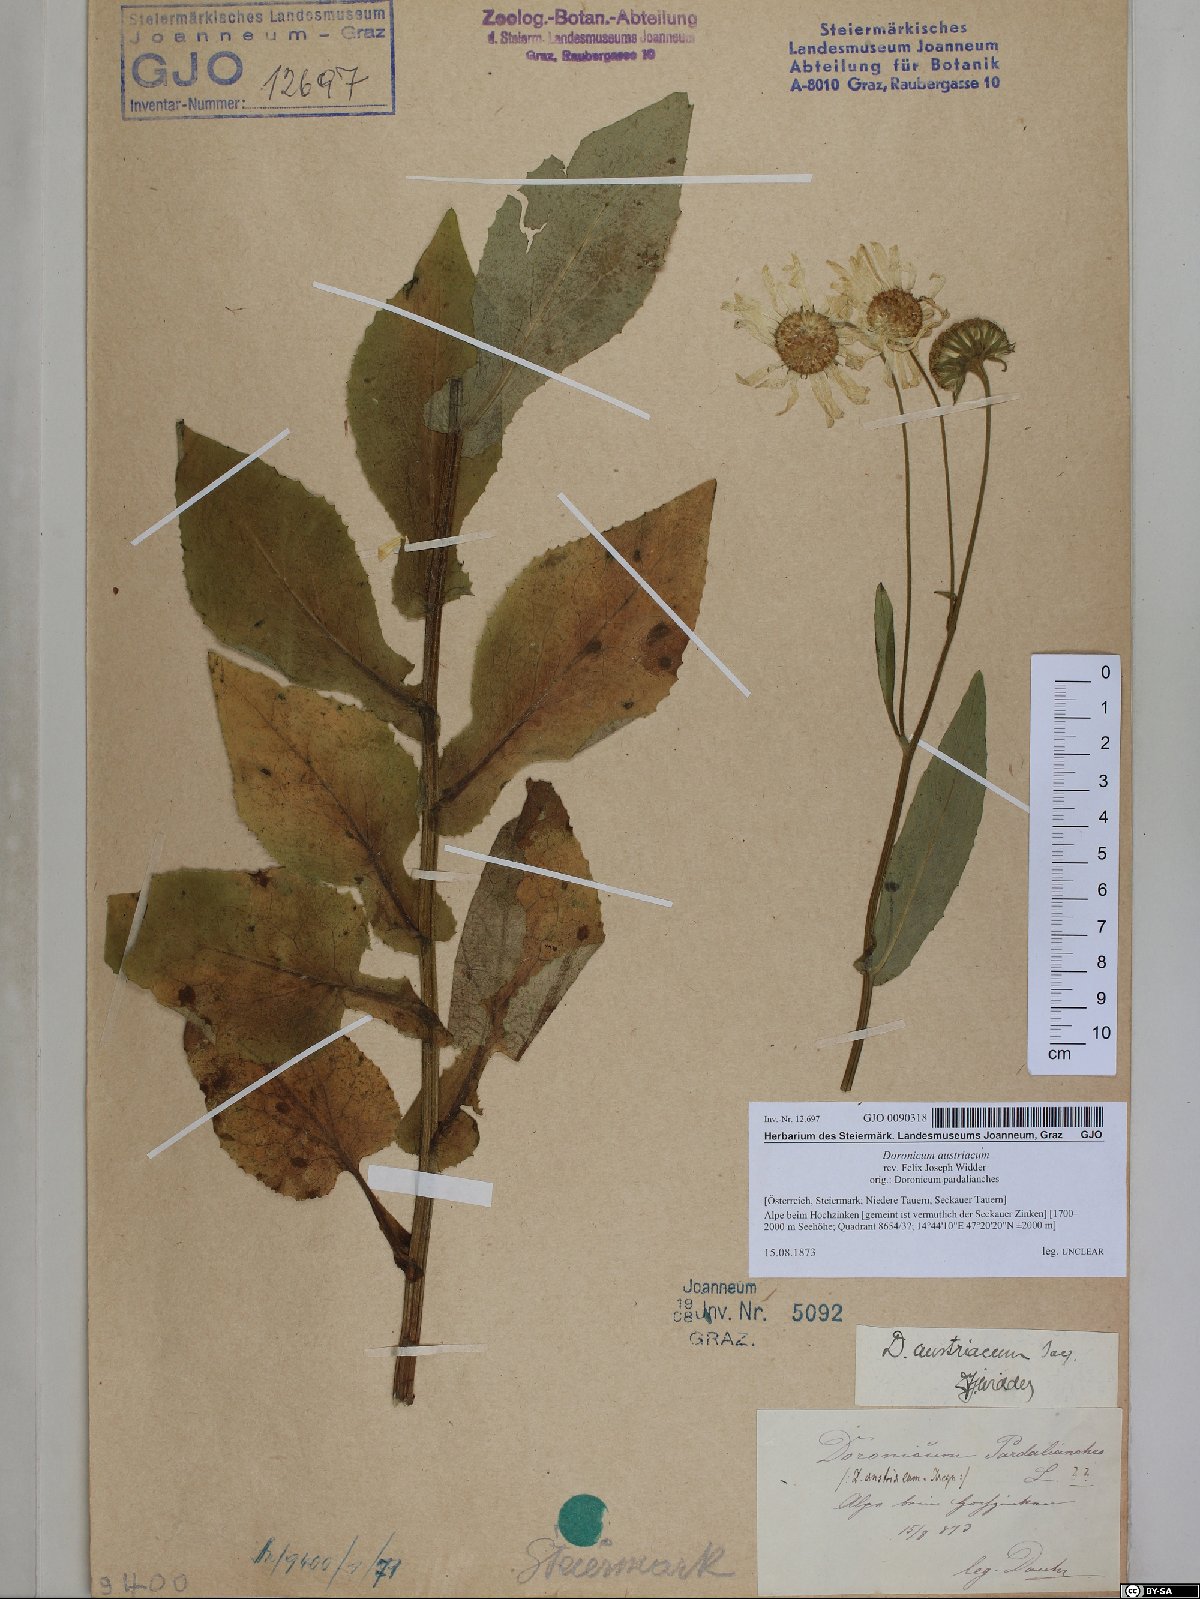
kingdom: Plantae
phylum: Tracheophyta
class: Magnoliopsida
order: Asterales
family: Asteraceae
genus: Doronicum
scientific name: Doronicum austriacum
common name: Austrian leopard's-bane
